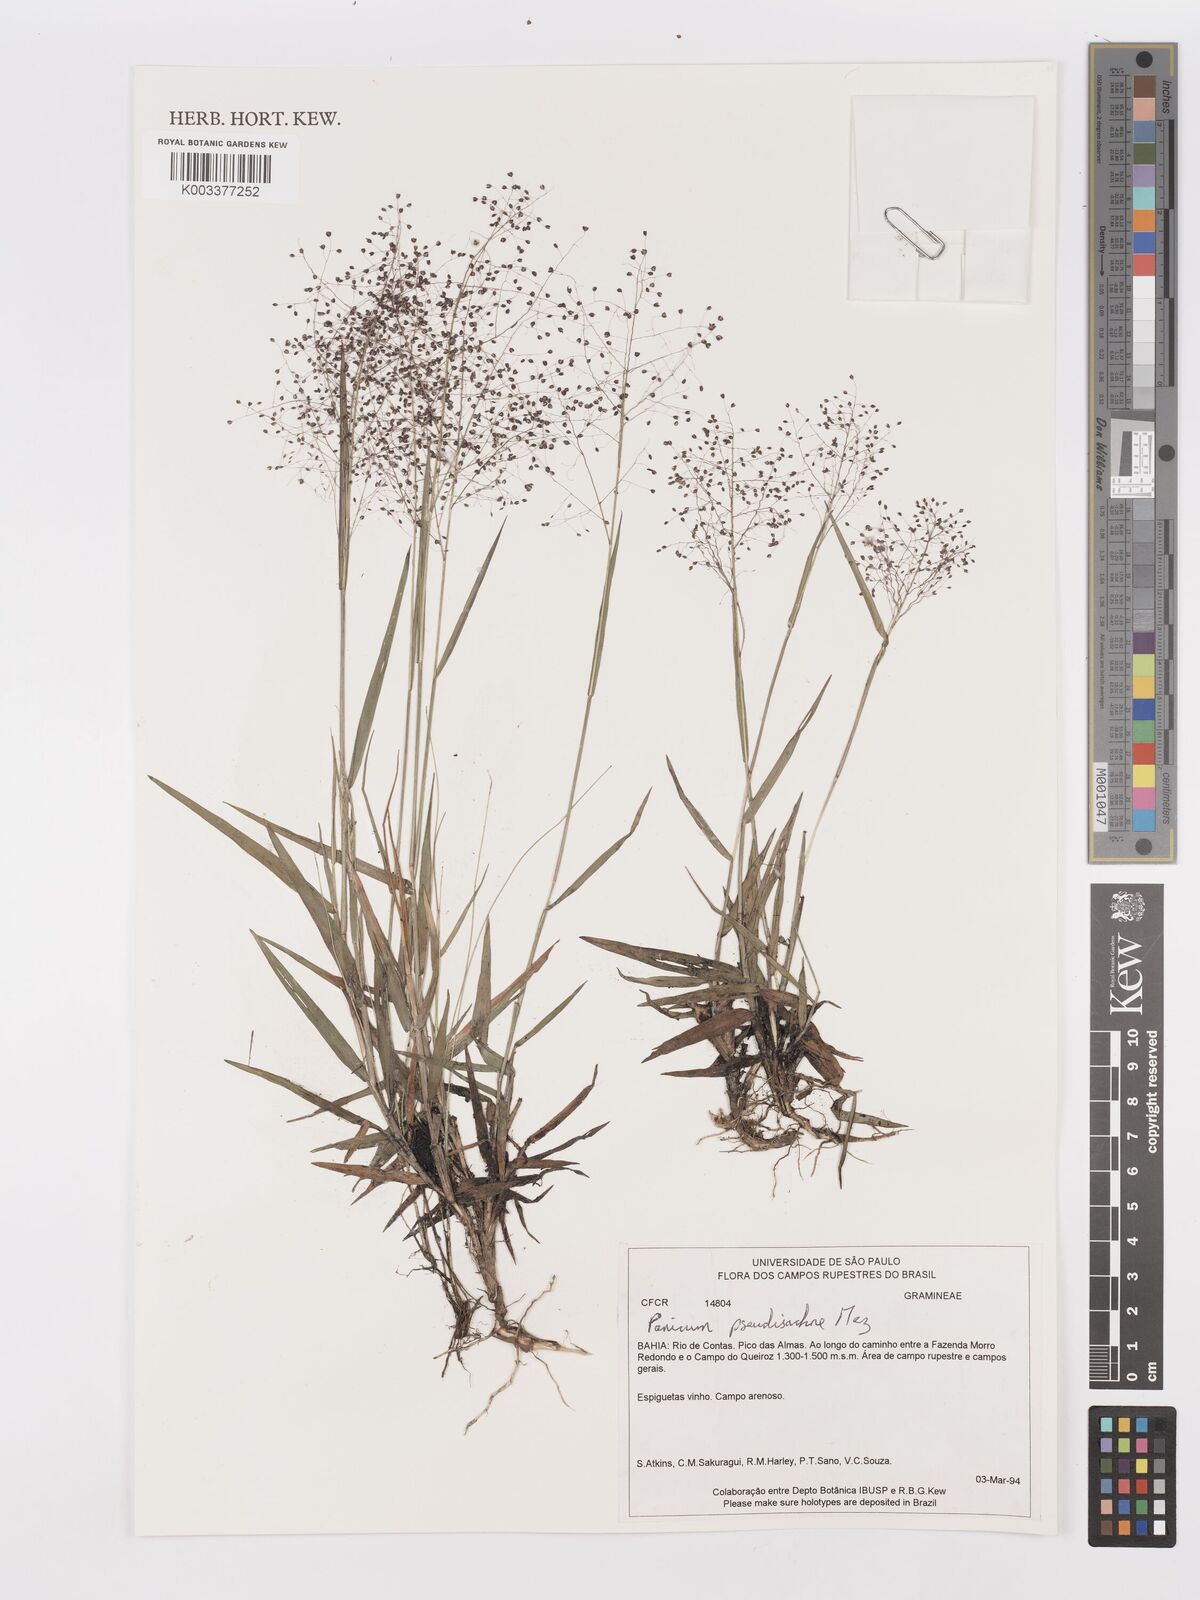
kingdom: Plantae
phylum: Tracheophyta
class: Liliopsida
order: Poales
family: Poaceae
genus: Trichanthecium
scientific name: Trichanthecium pseudisachne
